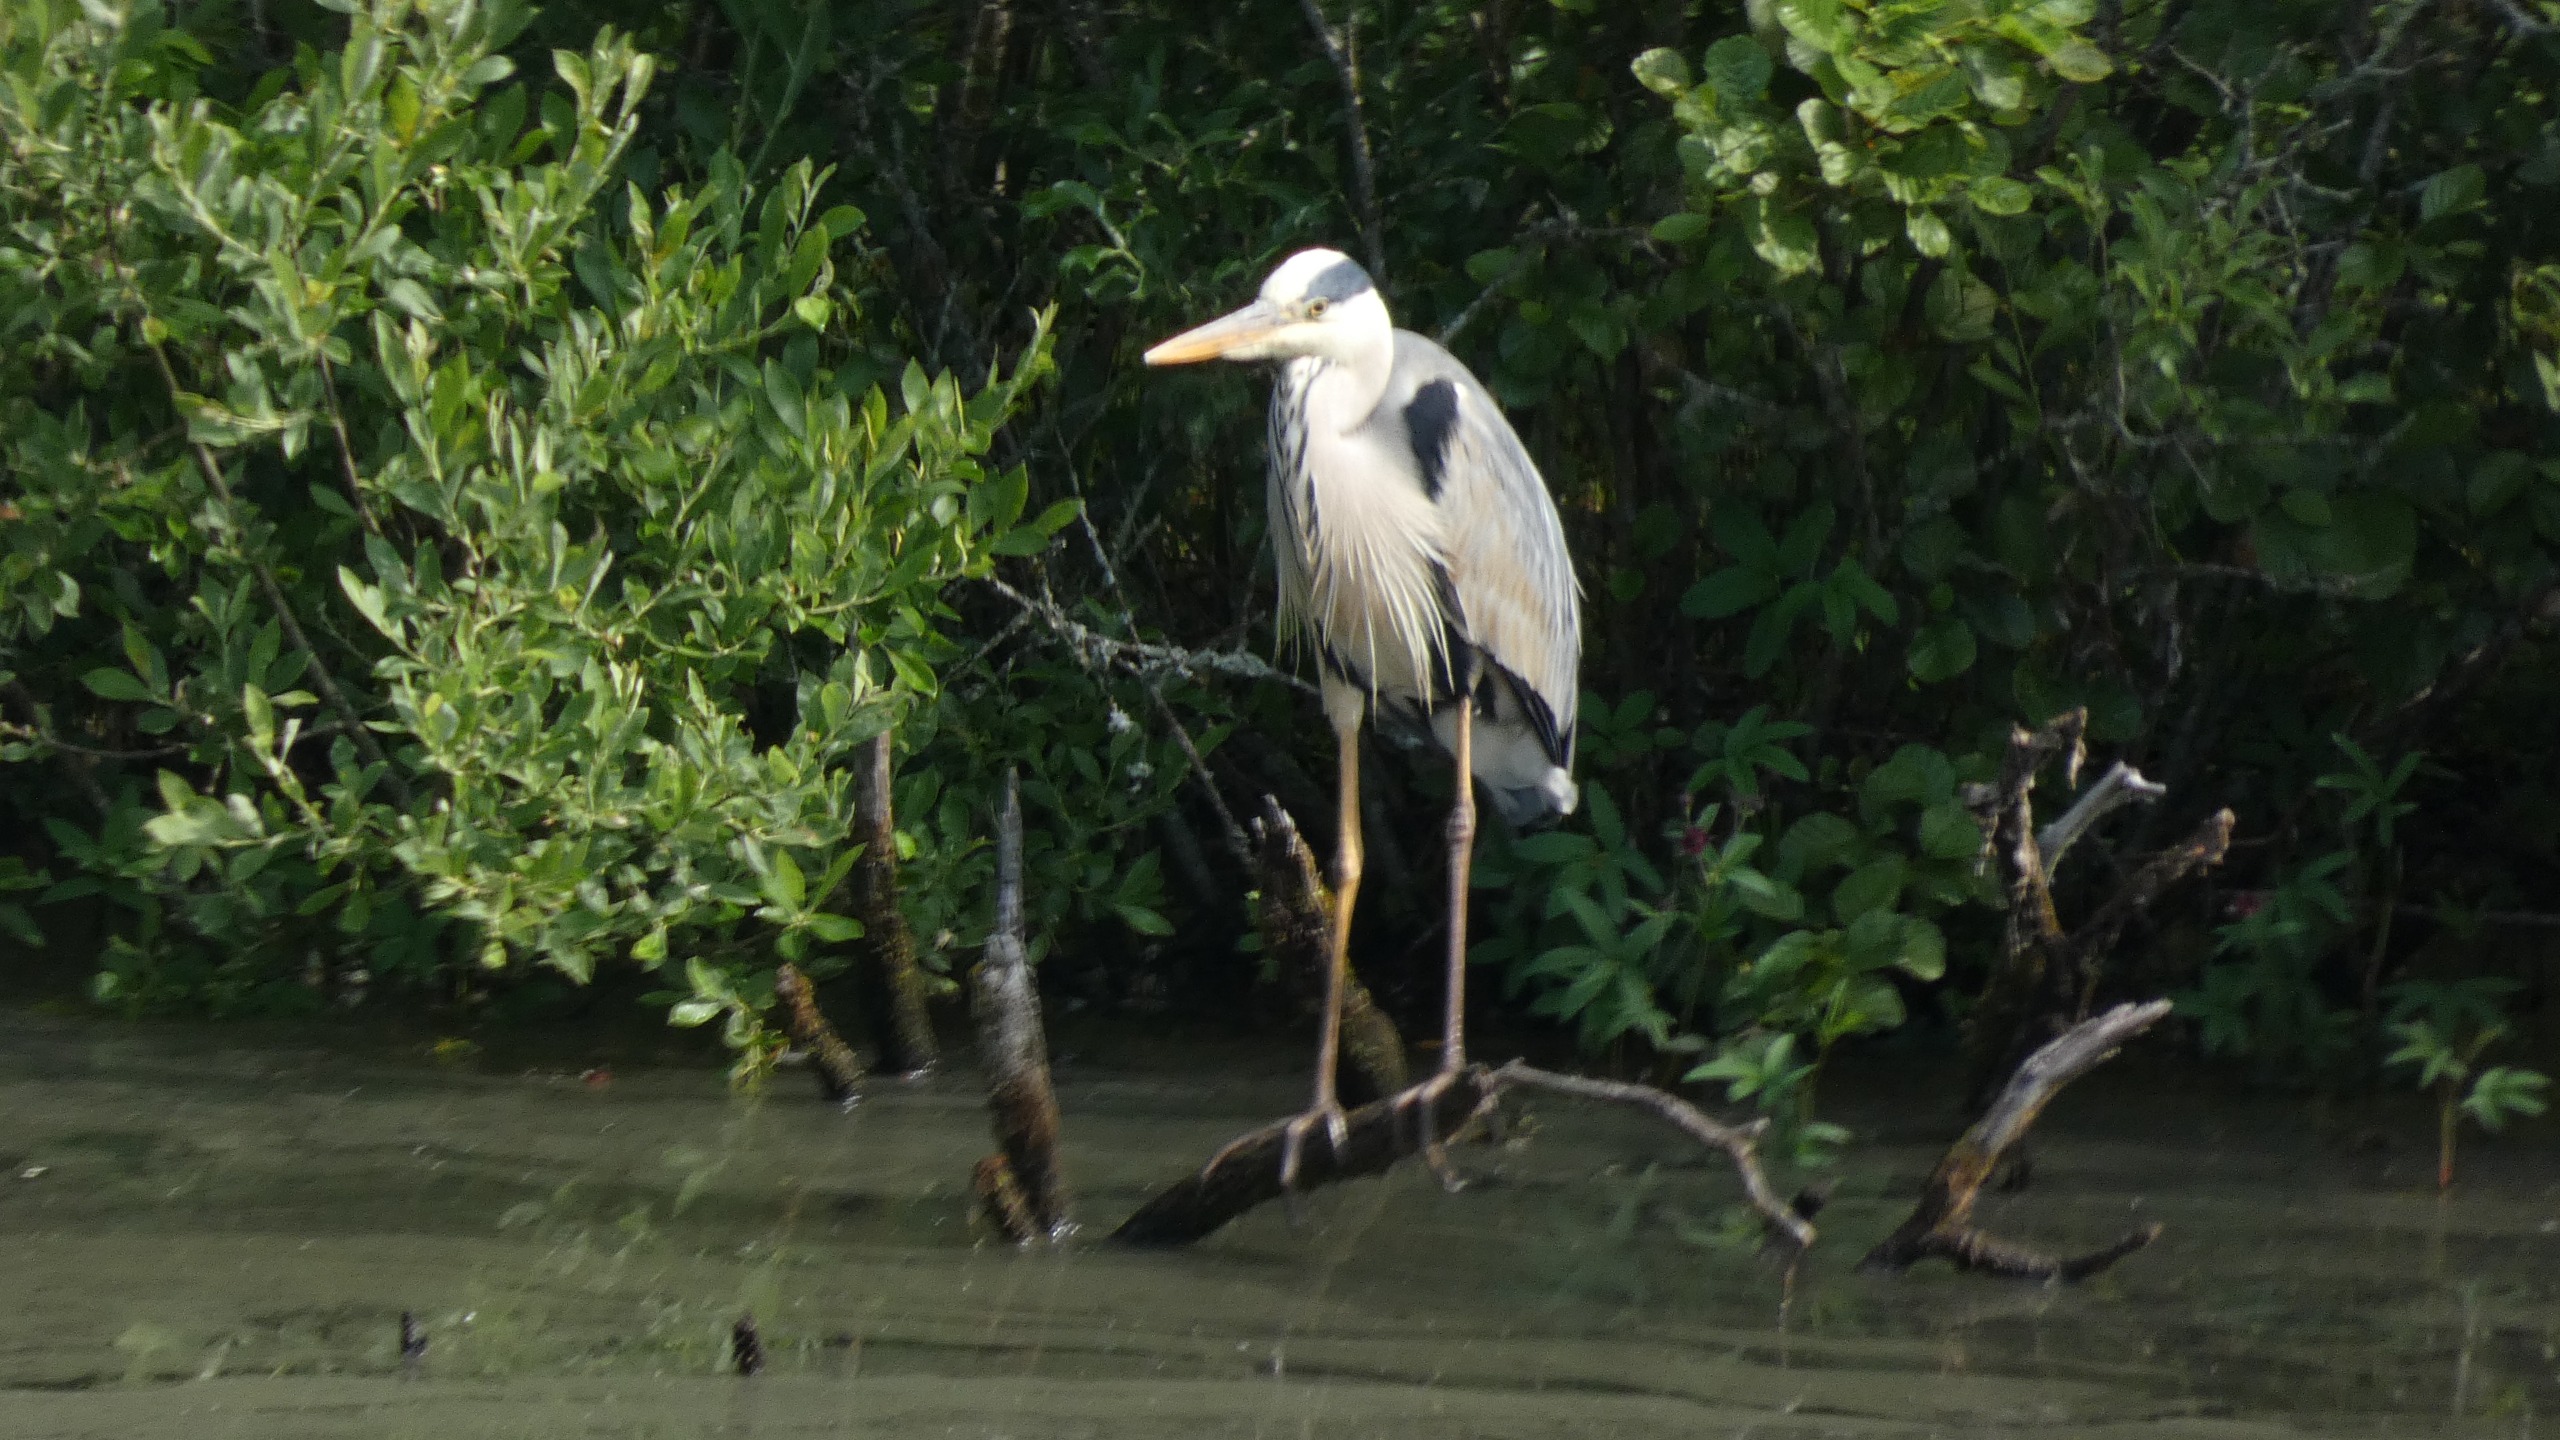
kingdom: Animalia
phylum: Chordata
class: Aves
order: Pelecaniformes
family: Ardeidae
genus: Ardea
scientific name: Ardea cinerea
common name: Fiskehejre
